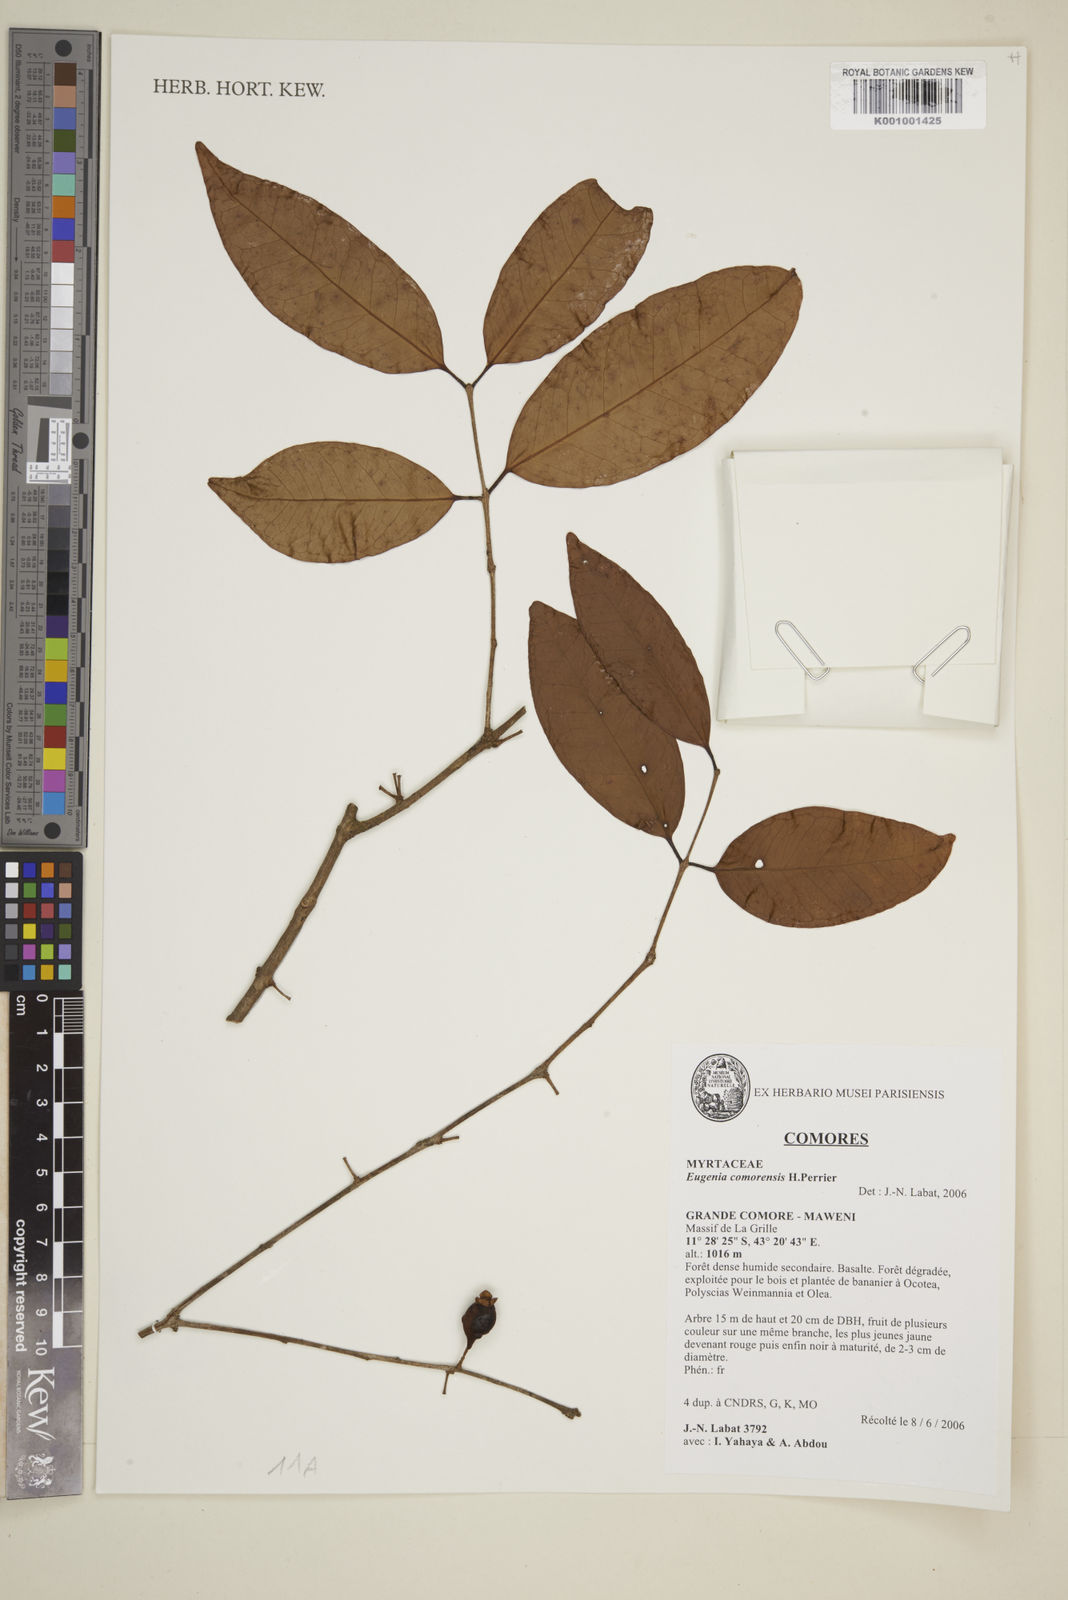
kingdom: Plantae
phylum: Tracheophyta
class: Magnoliopsida
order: Myrtales
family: Myrtaceae
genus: Eugenia
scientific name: Eugenia comorensis
